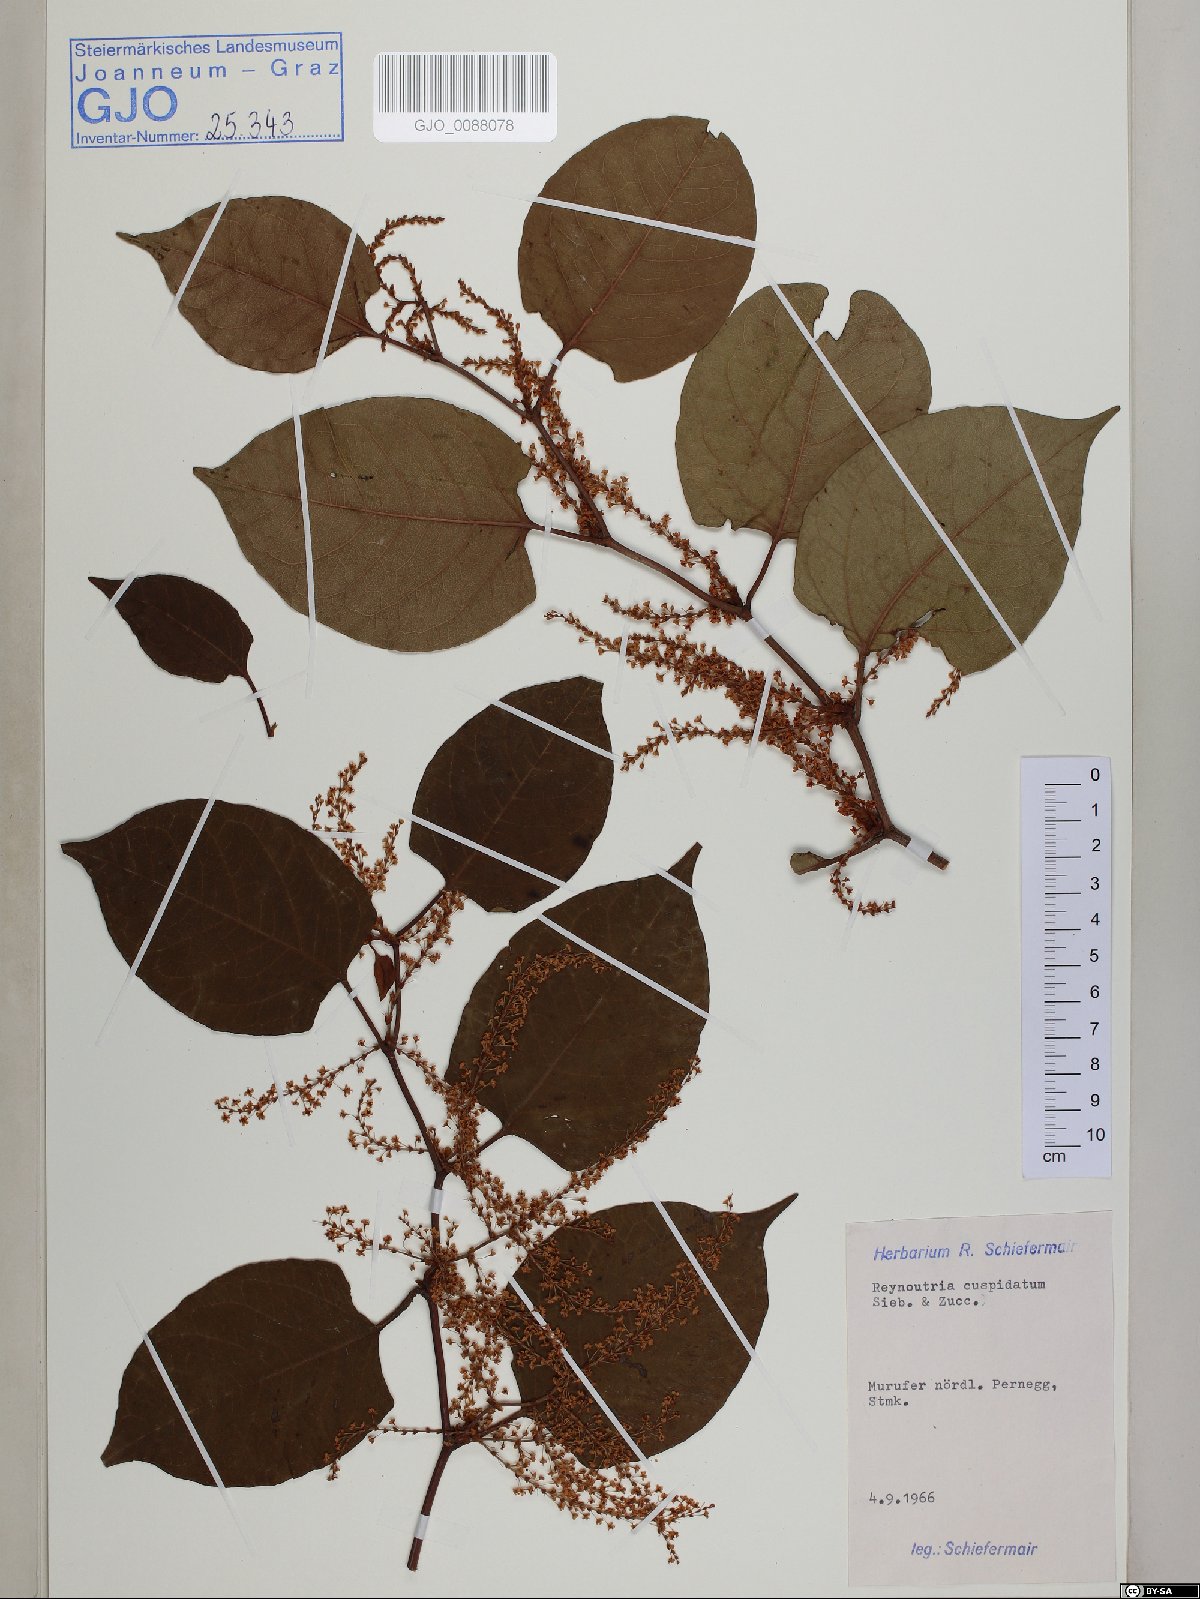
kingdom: Plantae
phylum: Tracheophyta
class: Magnoliopsida
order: Caryophyllales
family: Polygonaceae
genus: Reynoutria
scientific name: Reynoutria japonica
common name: Japanese knotweed
